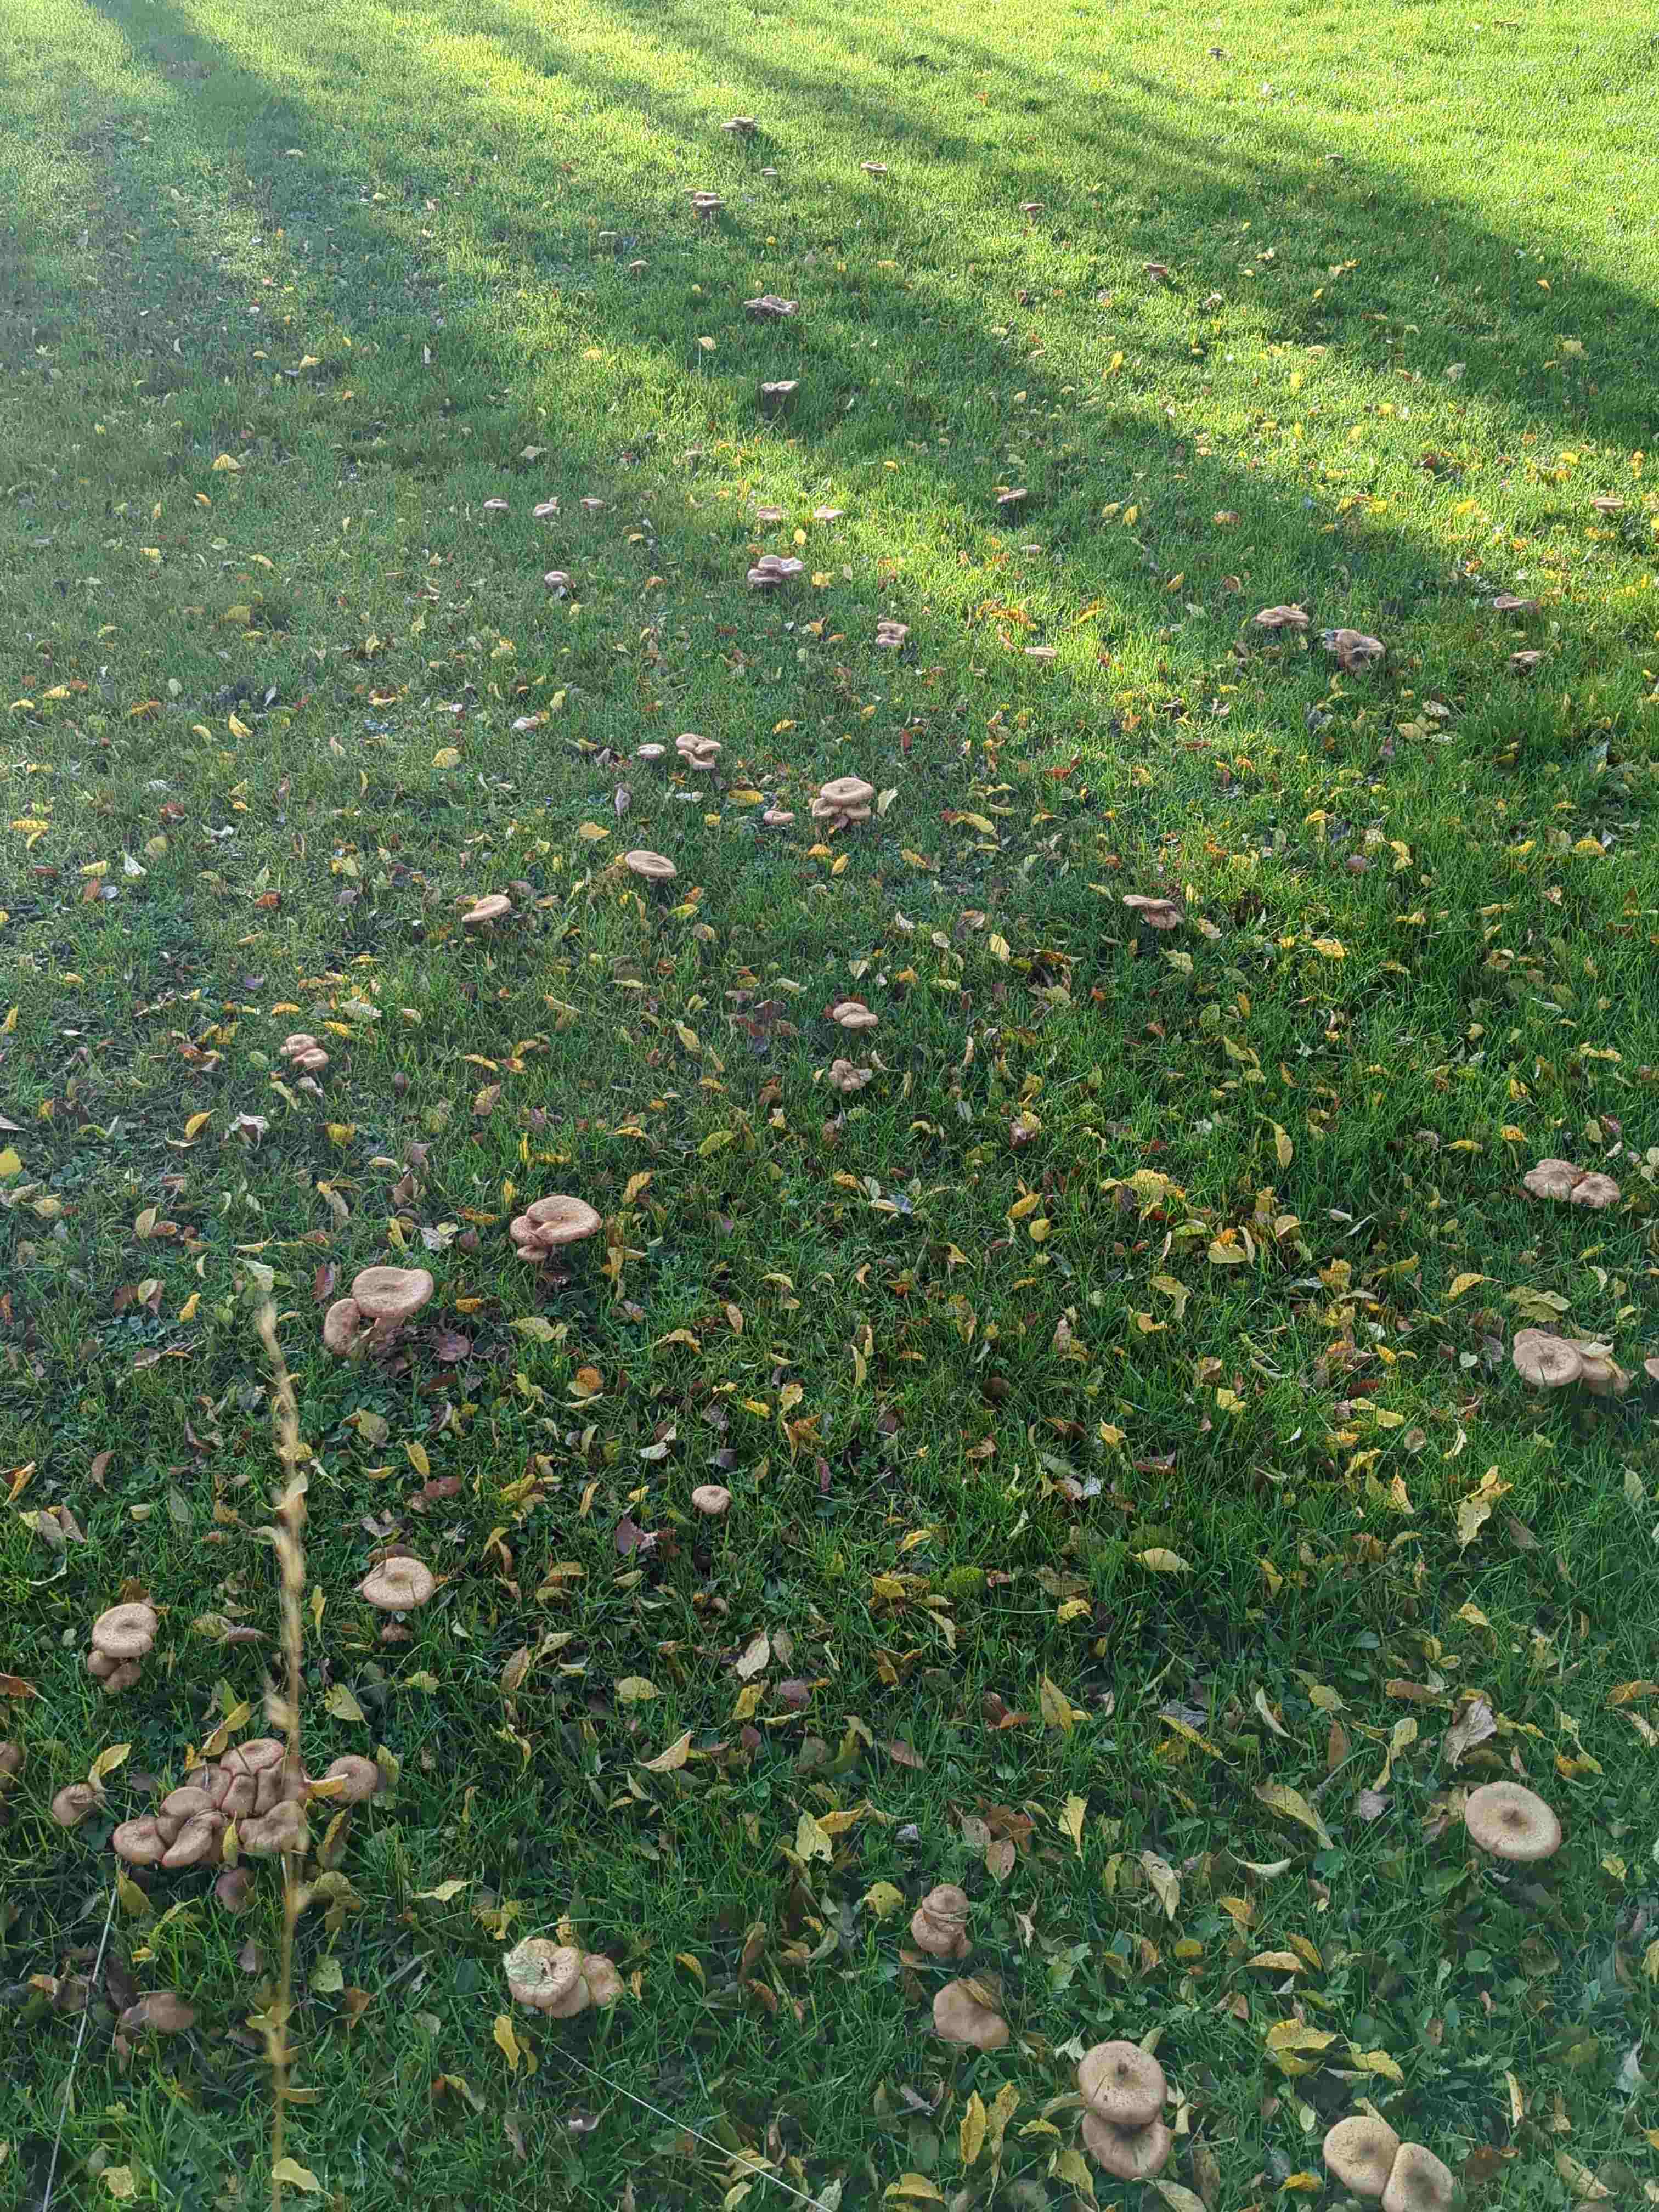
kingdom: Fungi
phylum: Basidiomycota
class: Agaricomycetes
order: Agaricales
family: Physalacriaceae
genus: Armillaria
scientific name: Armillaria
